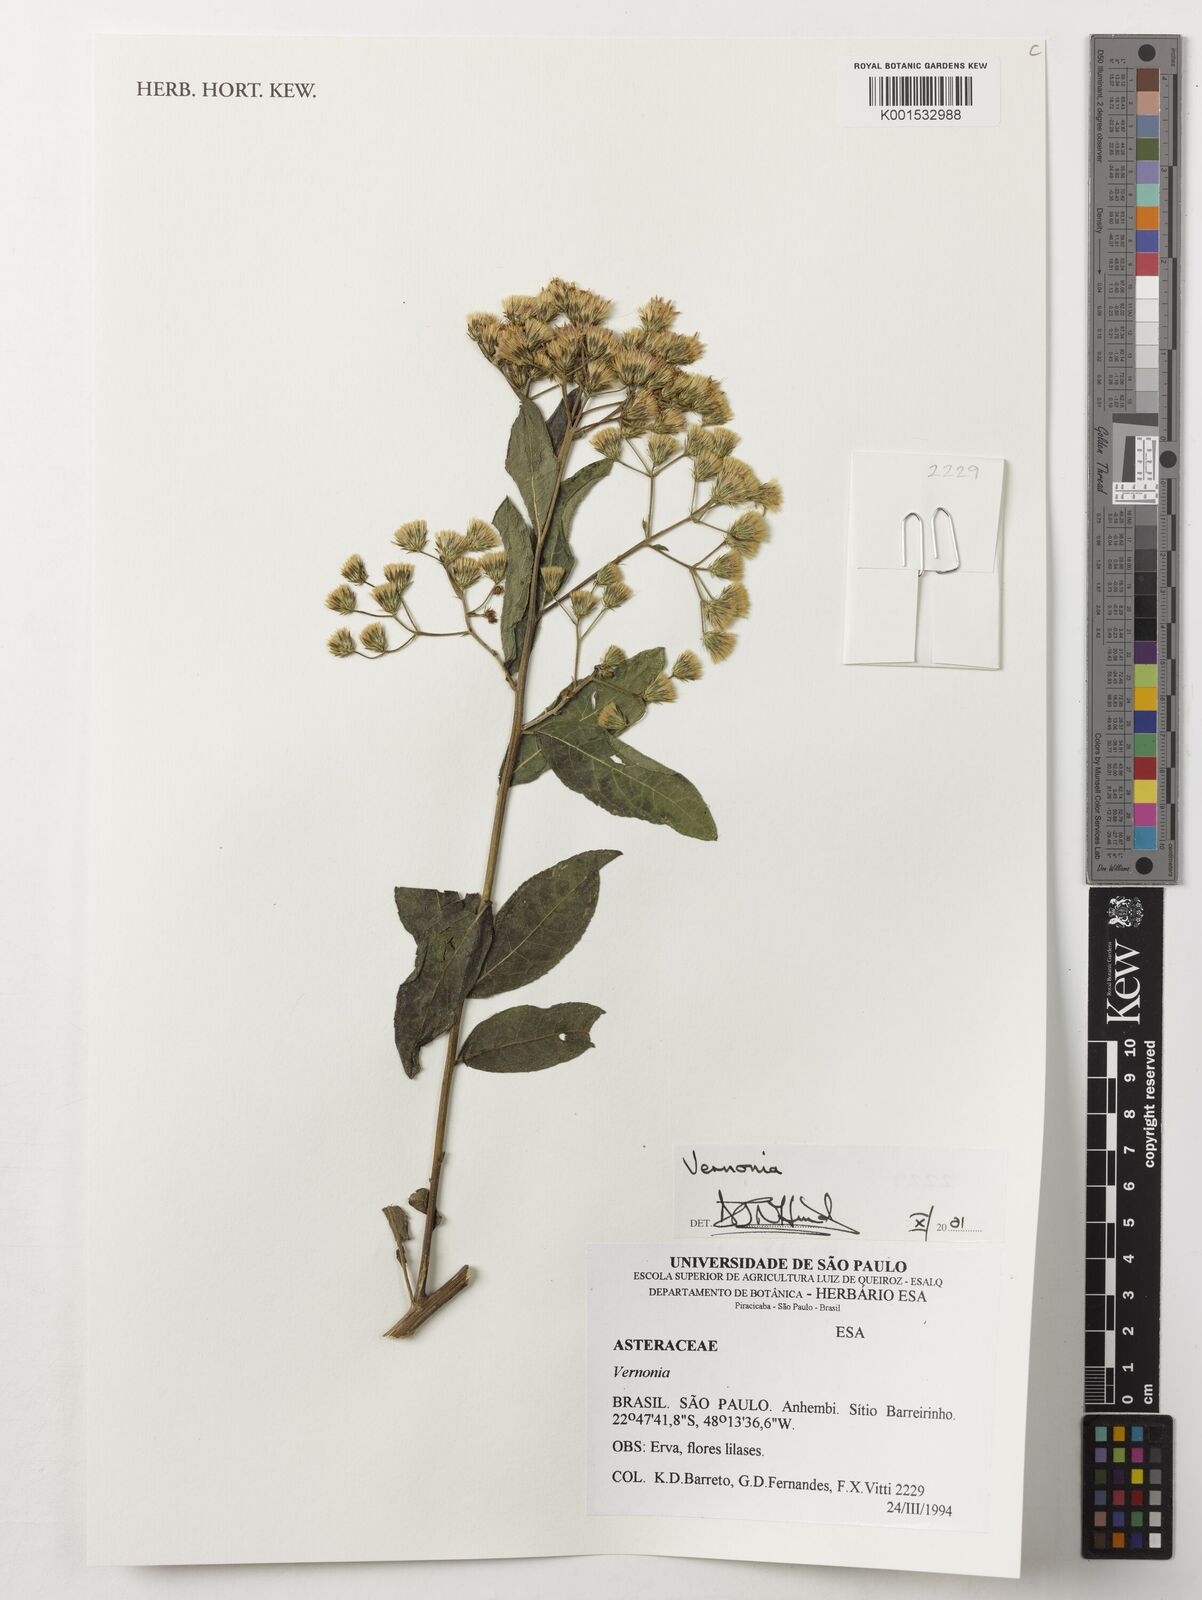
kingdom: Plantae
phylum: Tracheophyta
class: Magnoliopsida
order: Asterales
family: Asteraceae
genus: Vernonia
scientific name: Vernonia
